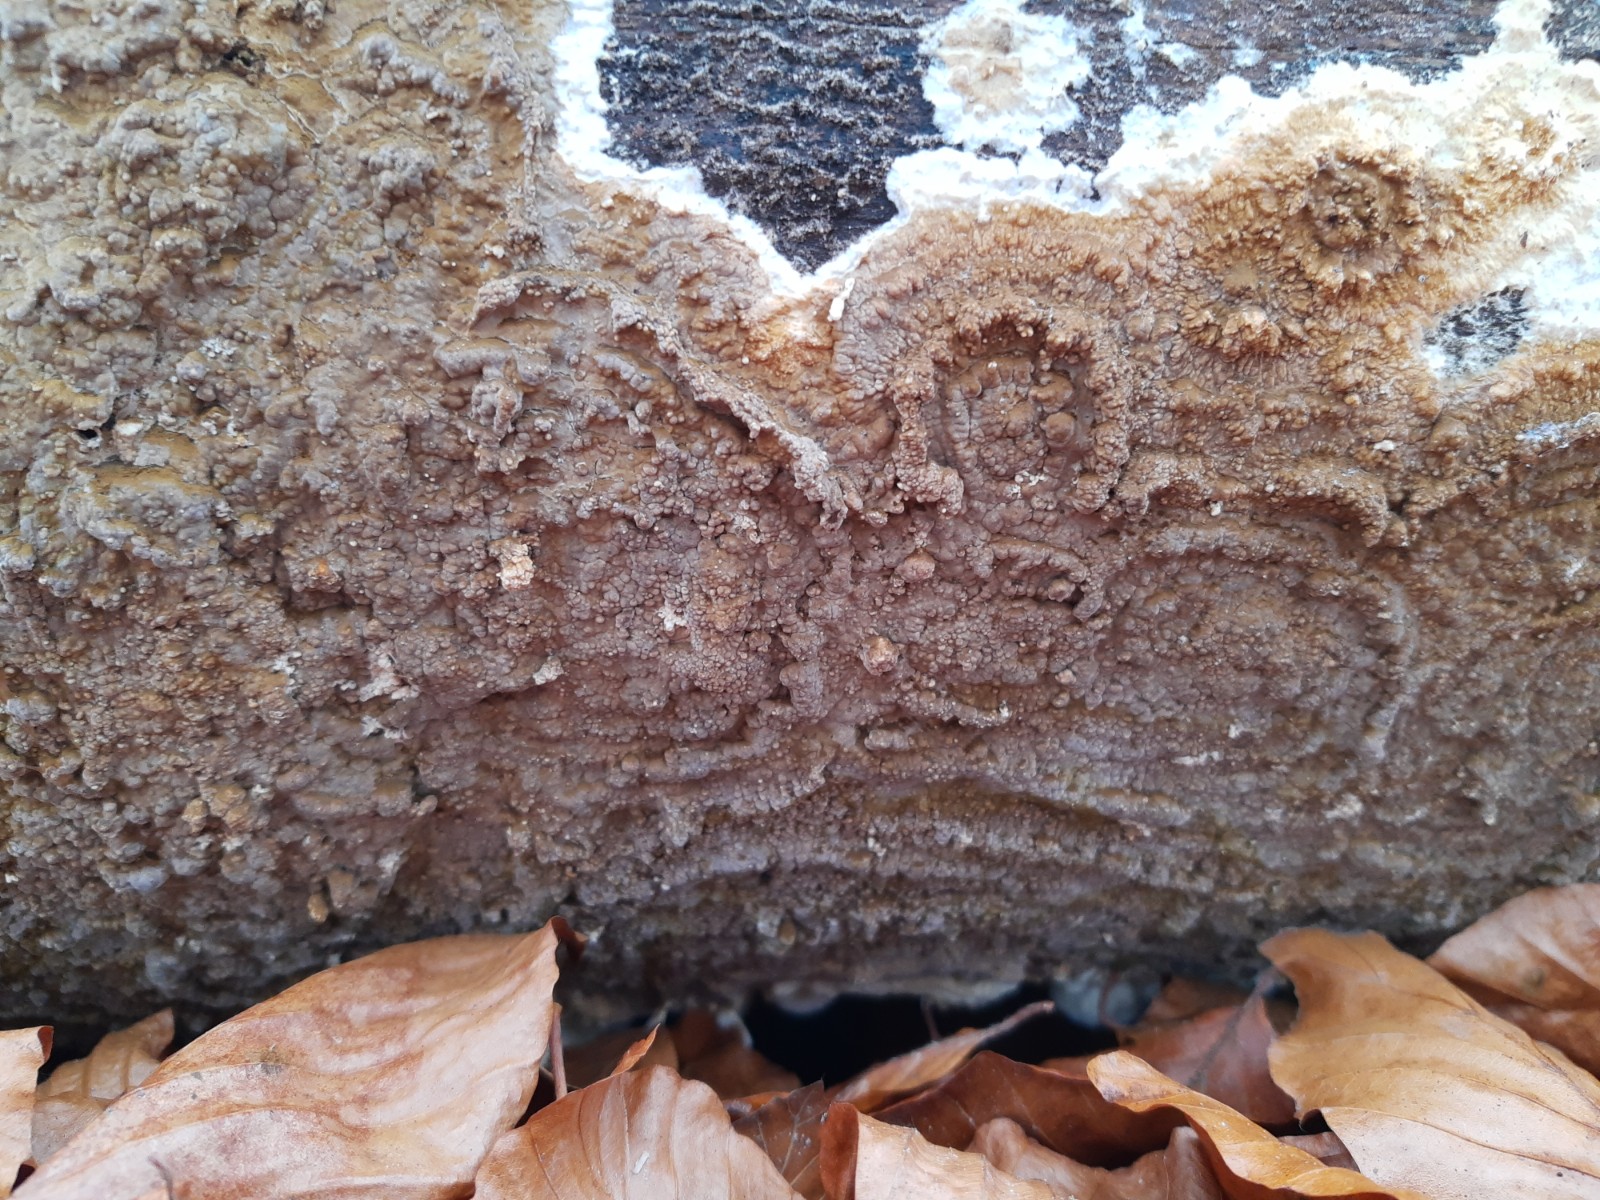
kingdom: Fungi
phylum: Basidiomycota
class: Agaricomycetes
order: Boletales
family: Coniophoraceae
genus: Coniophora
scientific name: Coniophora puteana
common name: gul tømmersvamp
